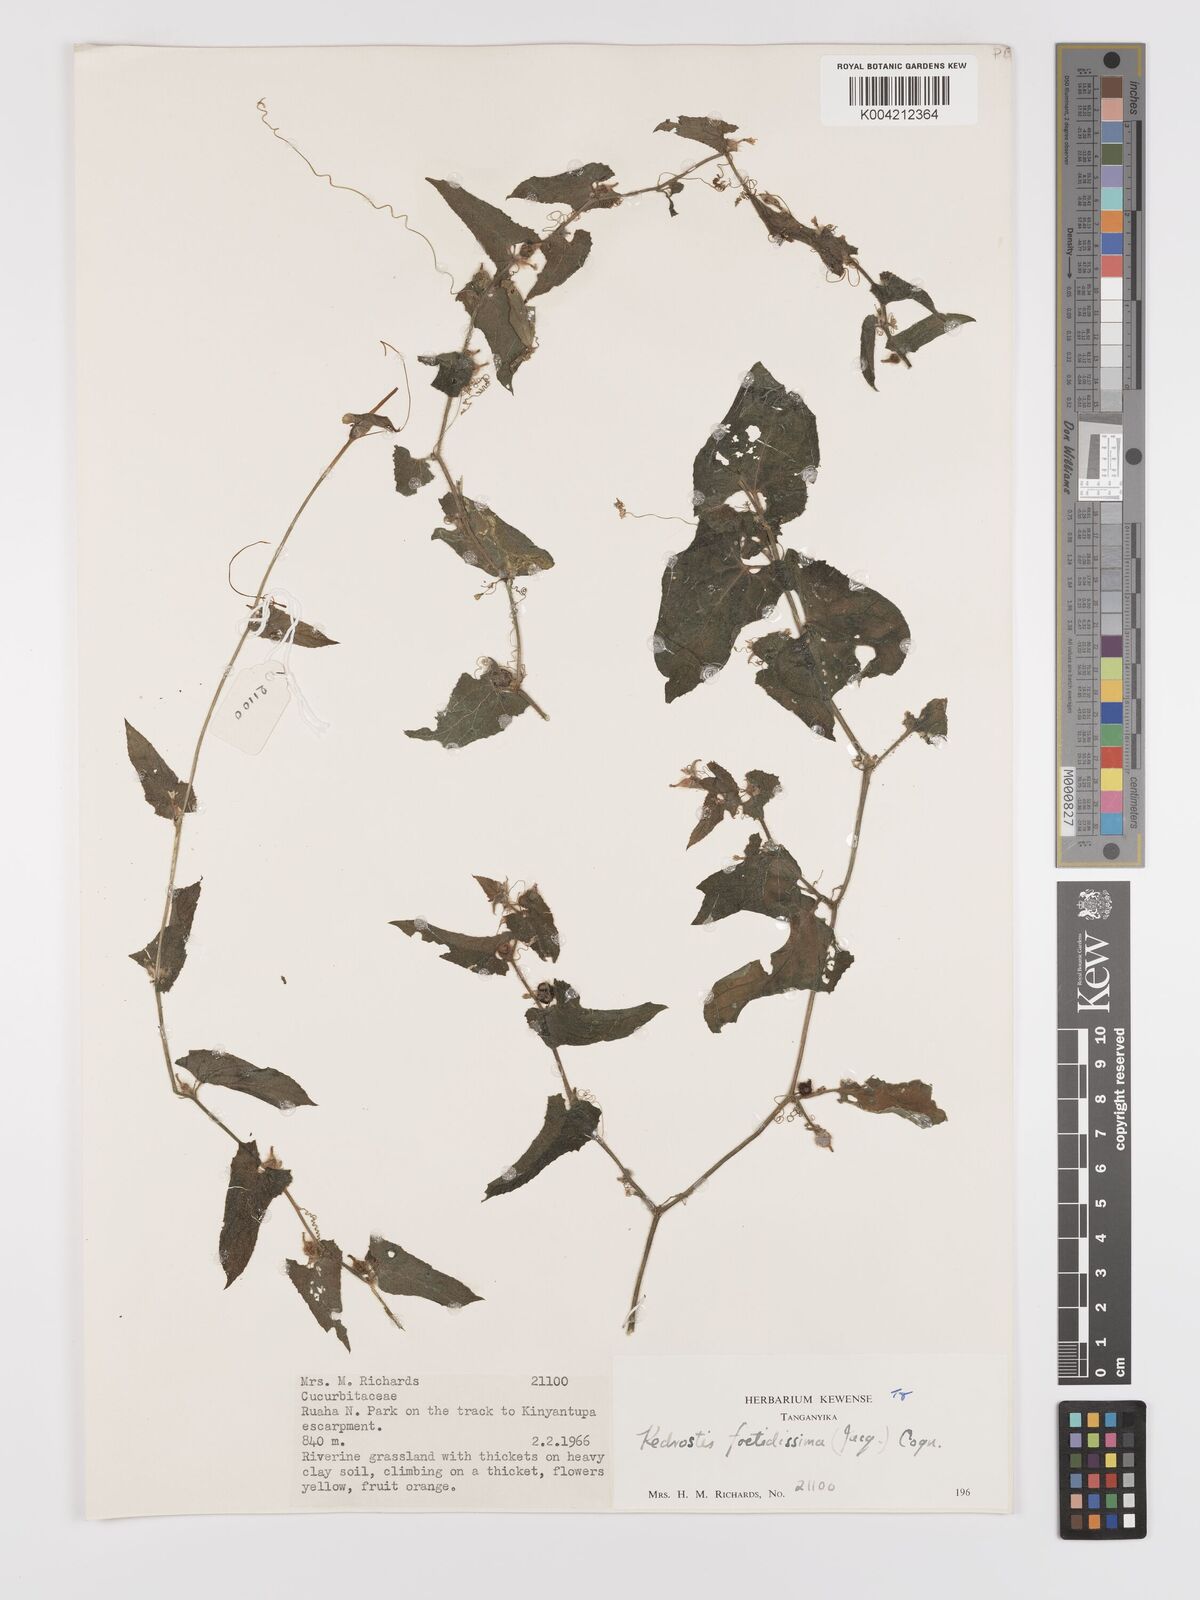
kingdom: Plantae
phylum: Tracheophyta
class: Magnoliopsida
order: Cucurbitales
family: Cucurbitaceae
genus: Kedrostis
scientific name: Kedrostis foetidissima
